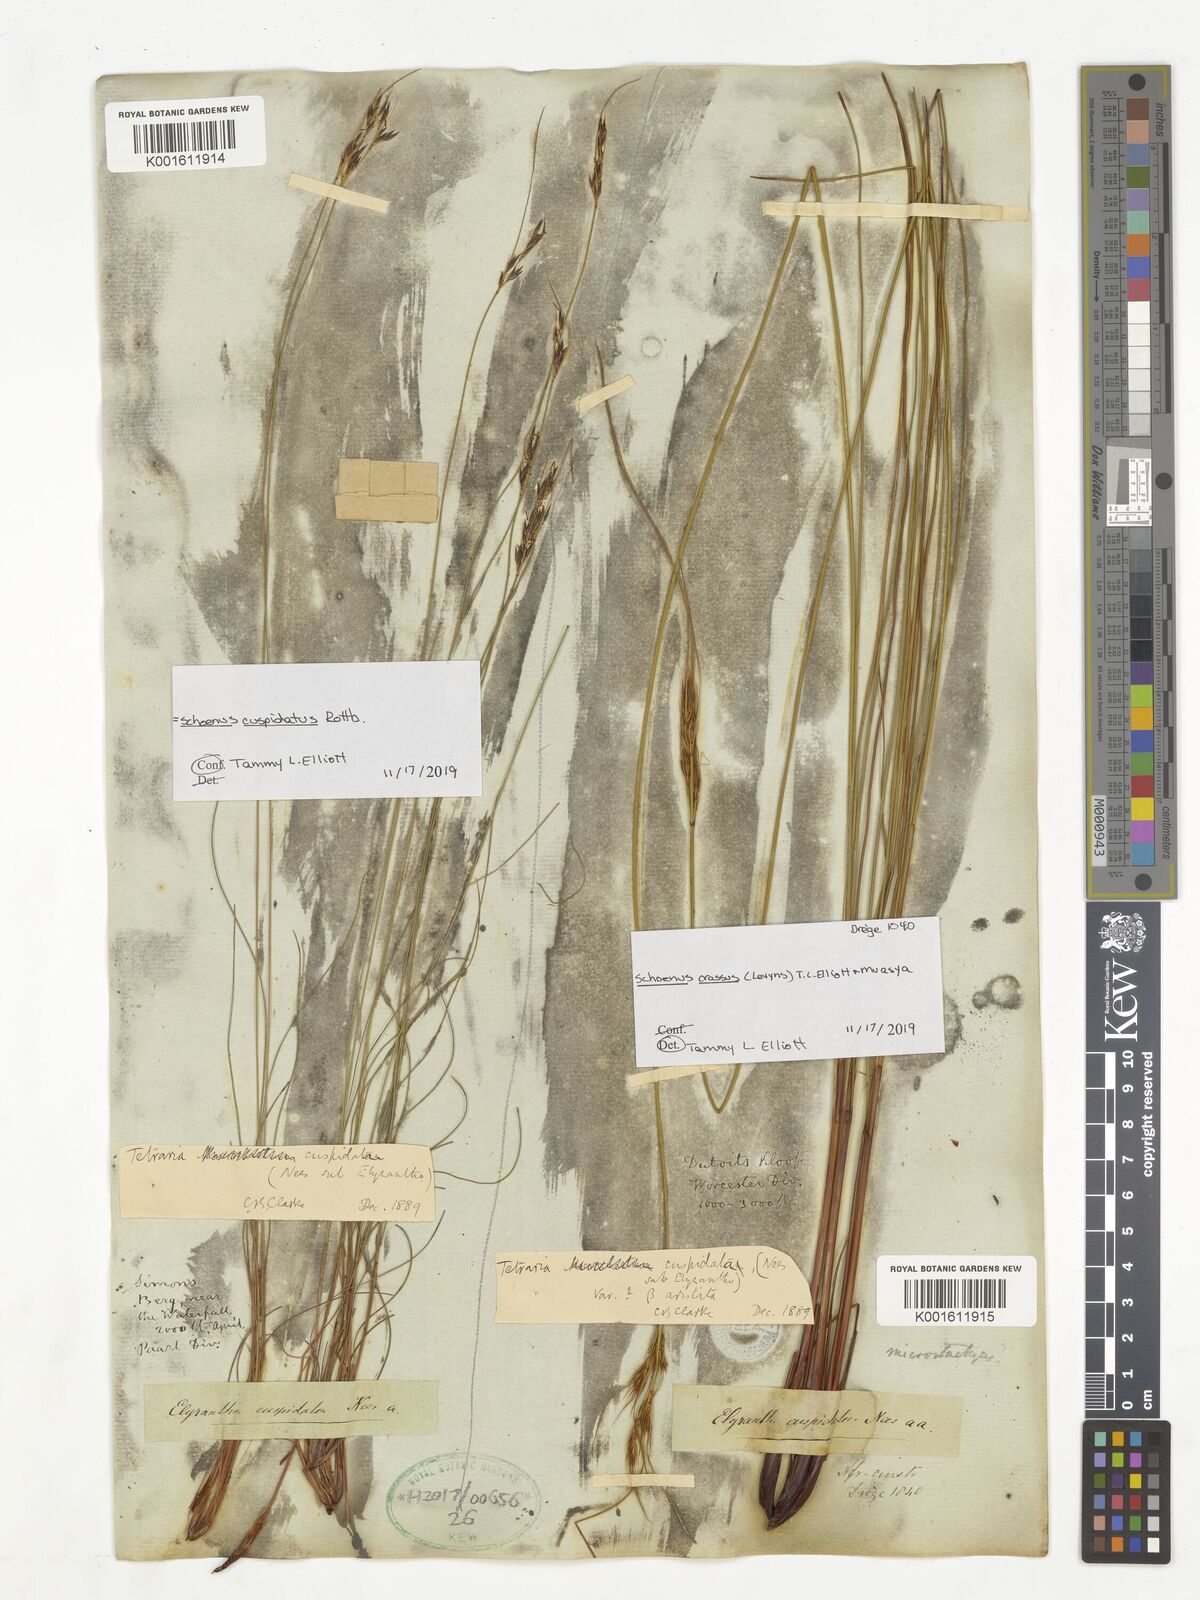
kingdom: Plantae
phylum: Tracheophyta
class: Liliopsida
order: Poales
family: Cyperaceae
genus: Schoenus
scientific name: Schoenus cuspidatus
